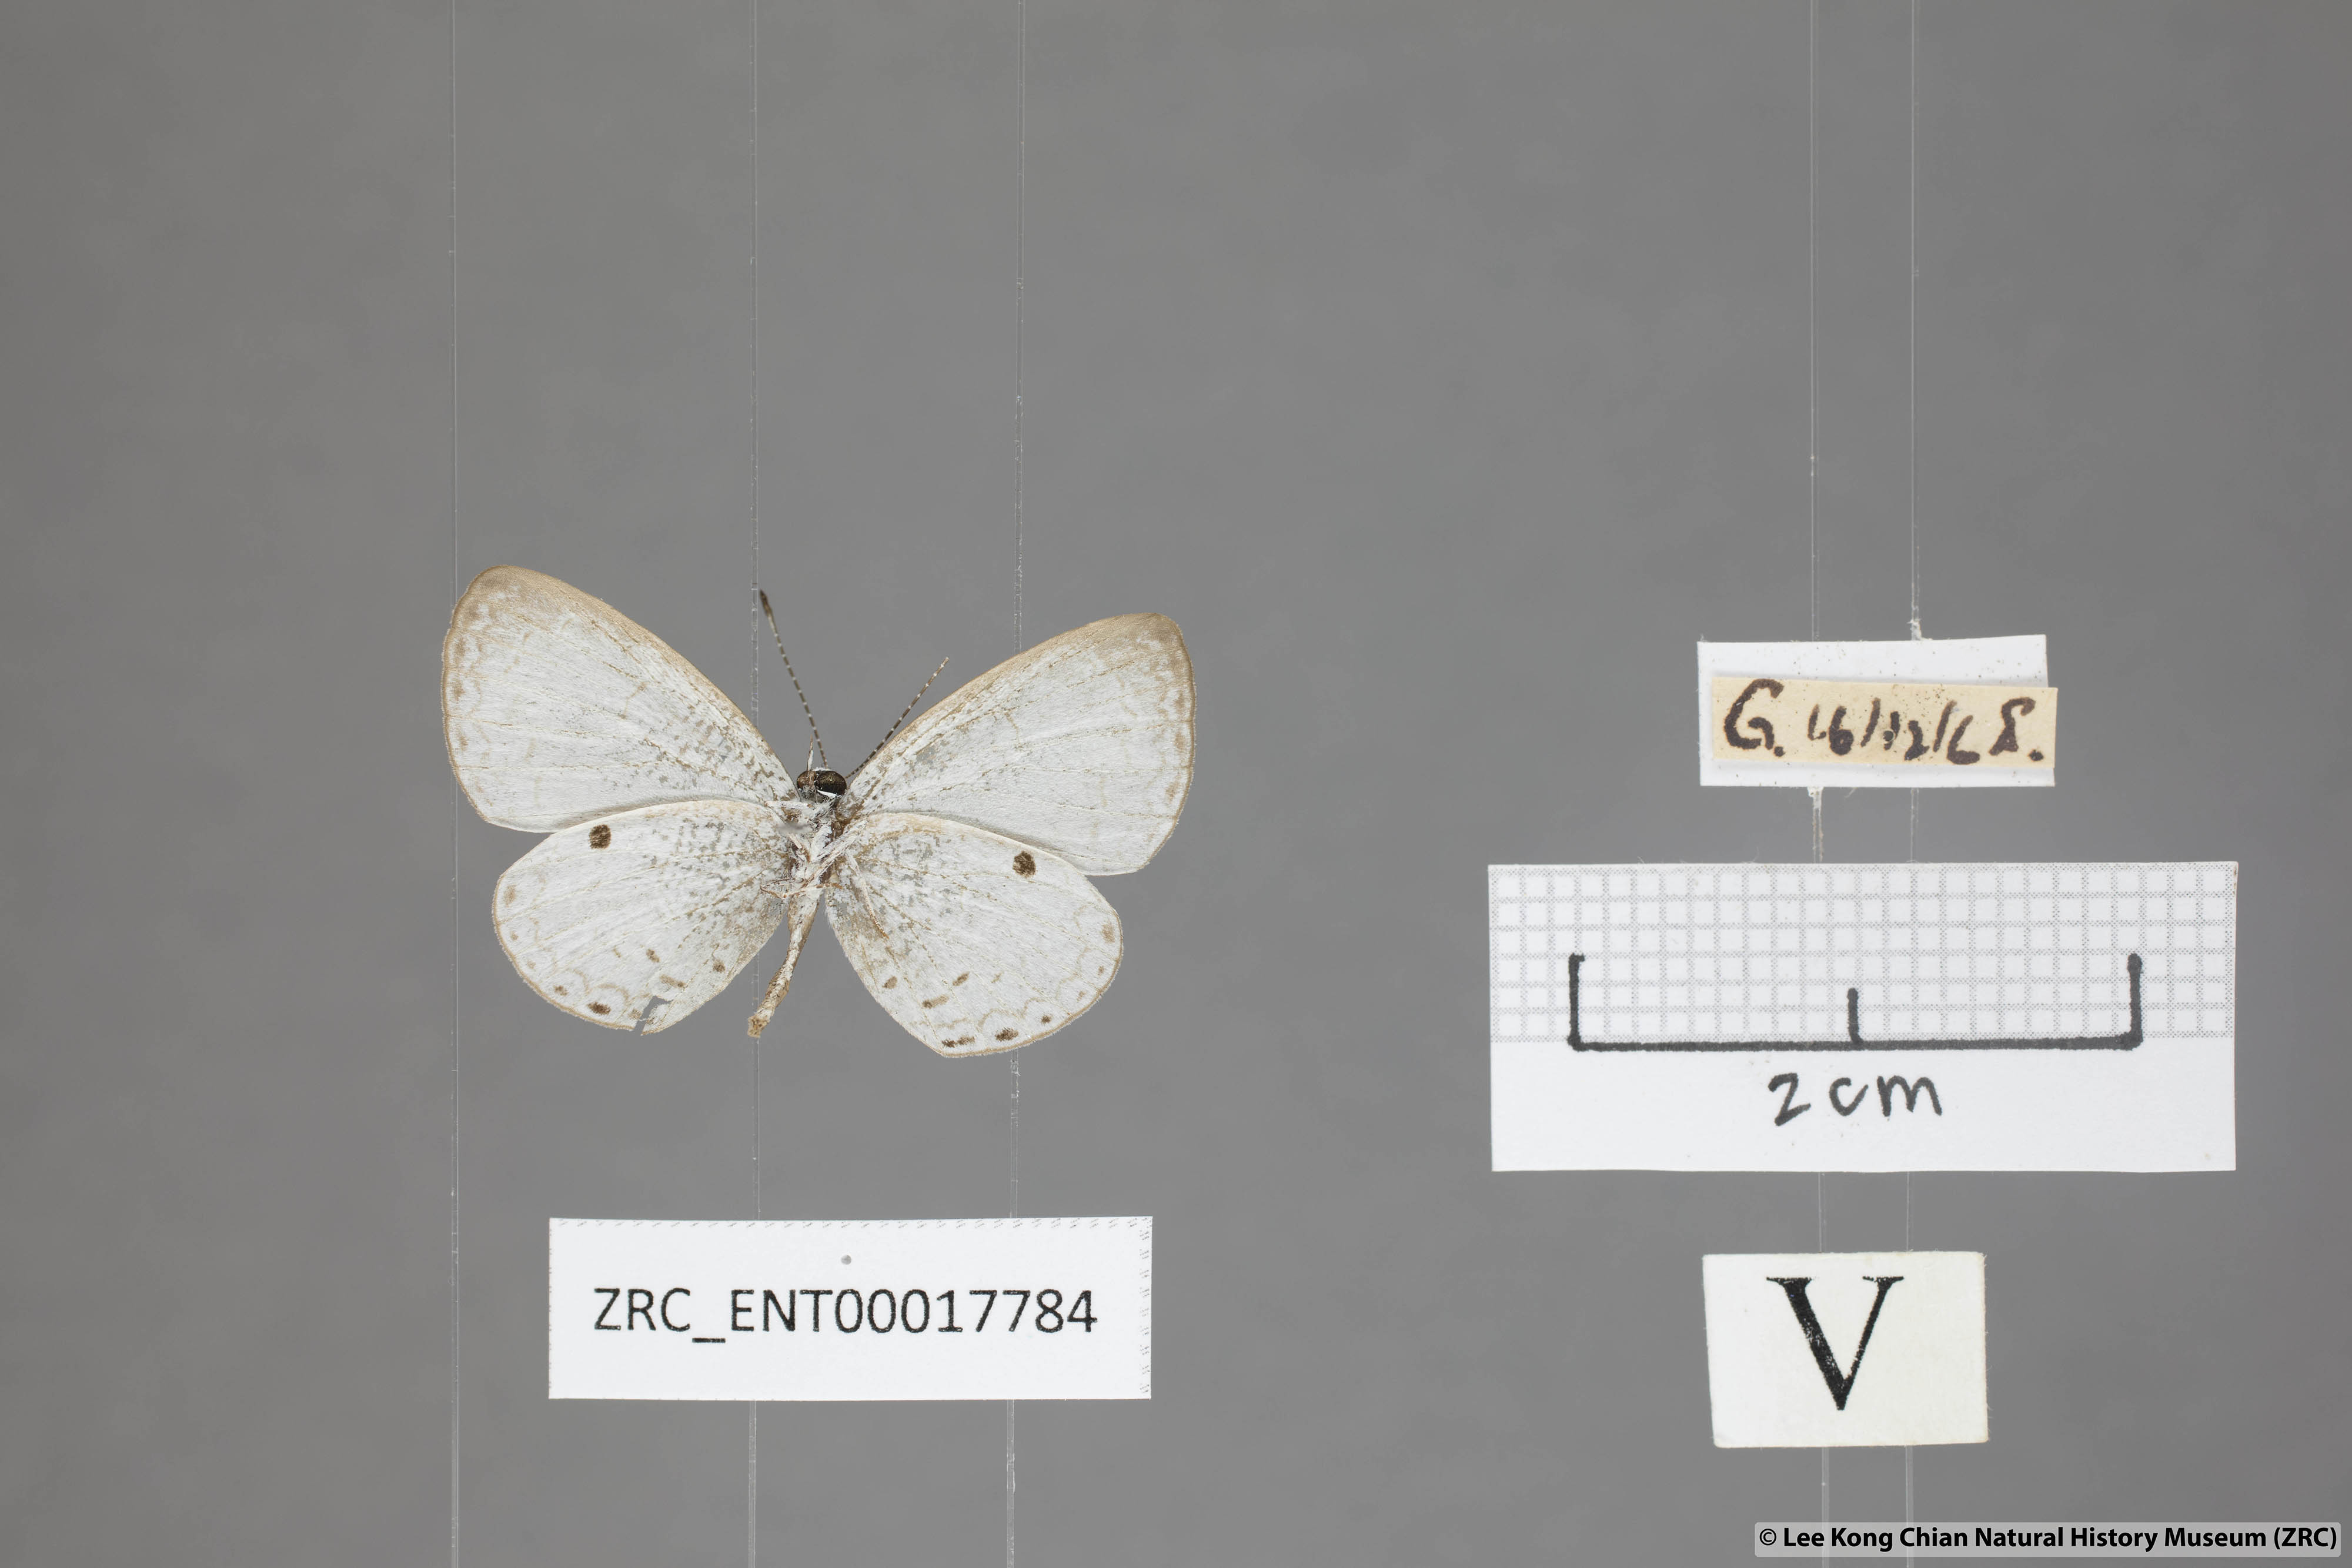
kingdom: Animalia
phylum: Arthropoda
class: Insecta
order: Lepidoptera
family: Lycaenidae
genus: Callenya
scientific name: Callenya lenya
